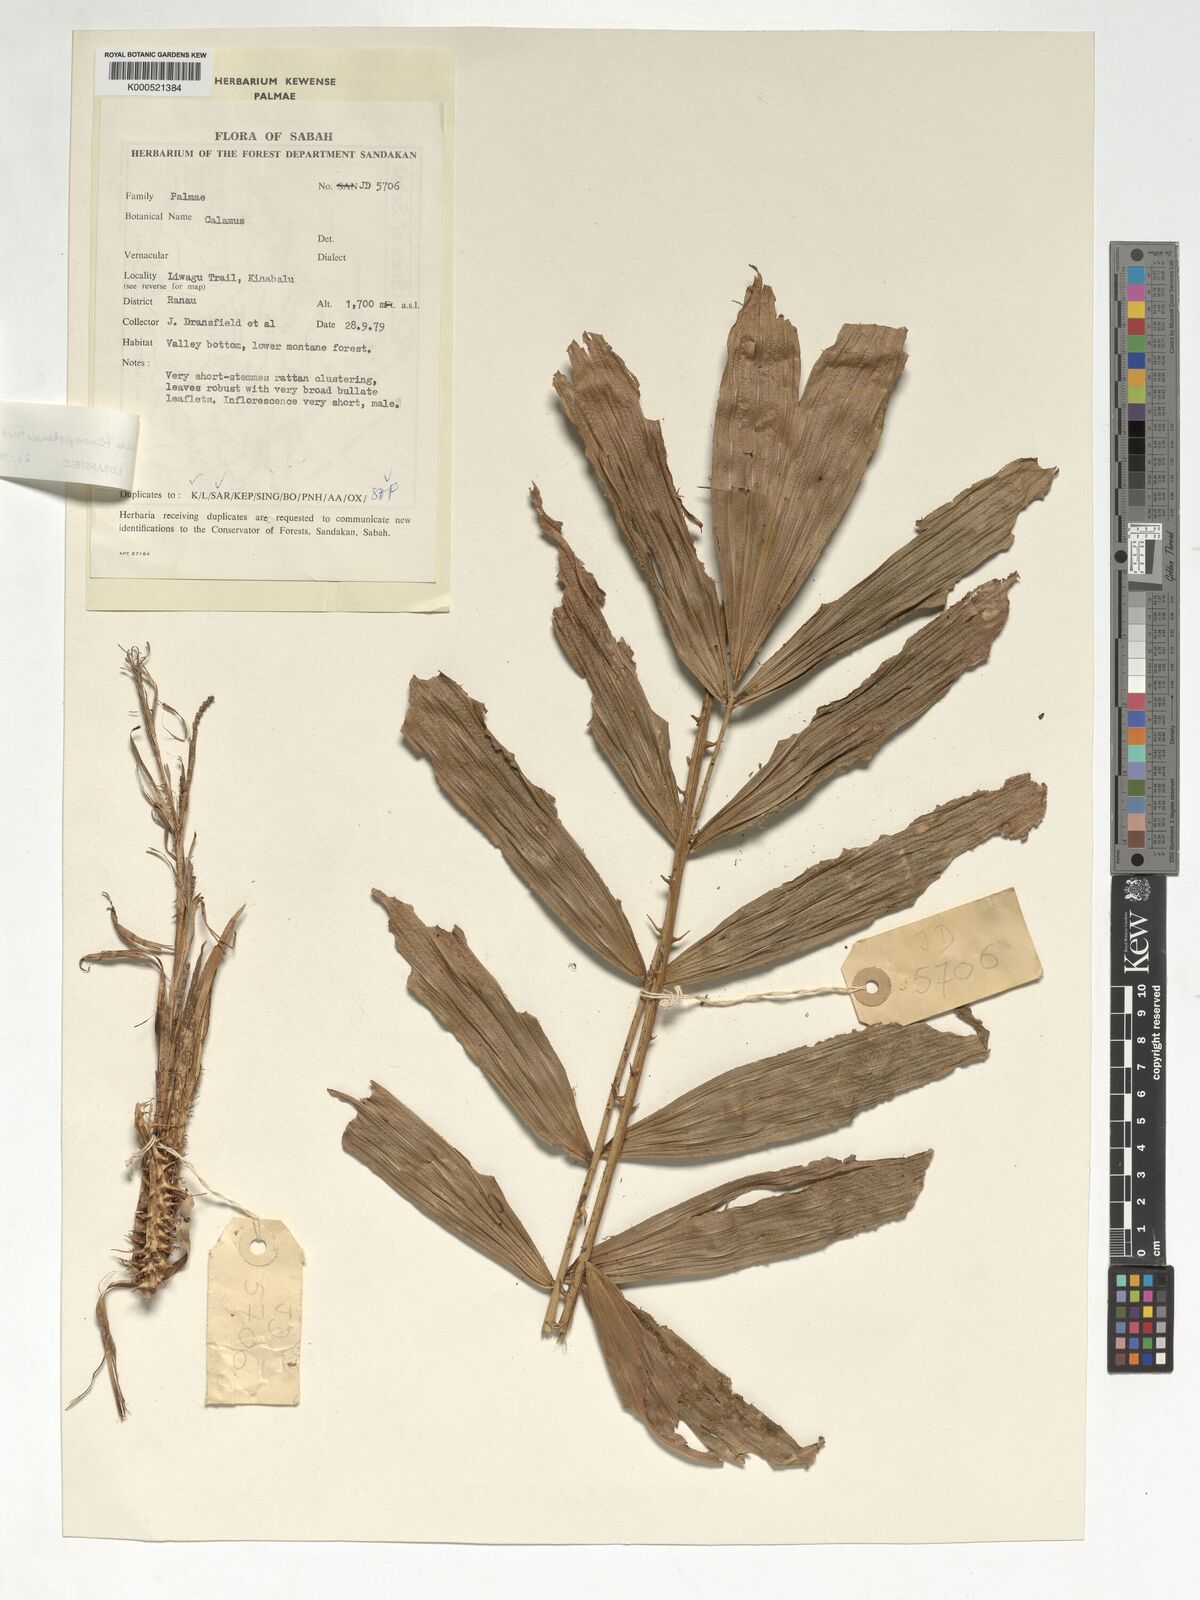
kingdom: Plantae
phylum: Tracheophyta
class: Liliopsida
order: Arecales
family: Arecaceae
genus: Calamus
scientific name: Calamus tenompokensis
